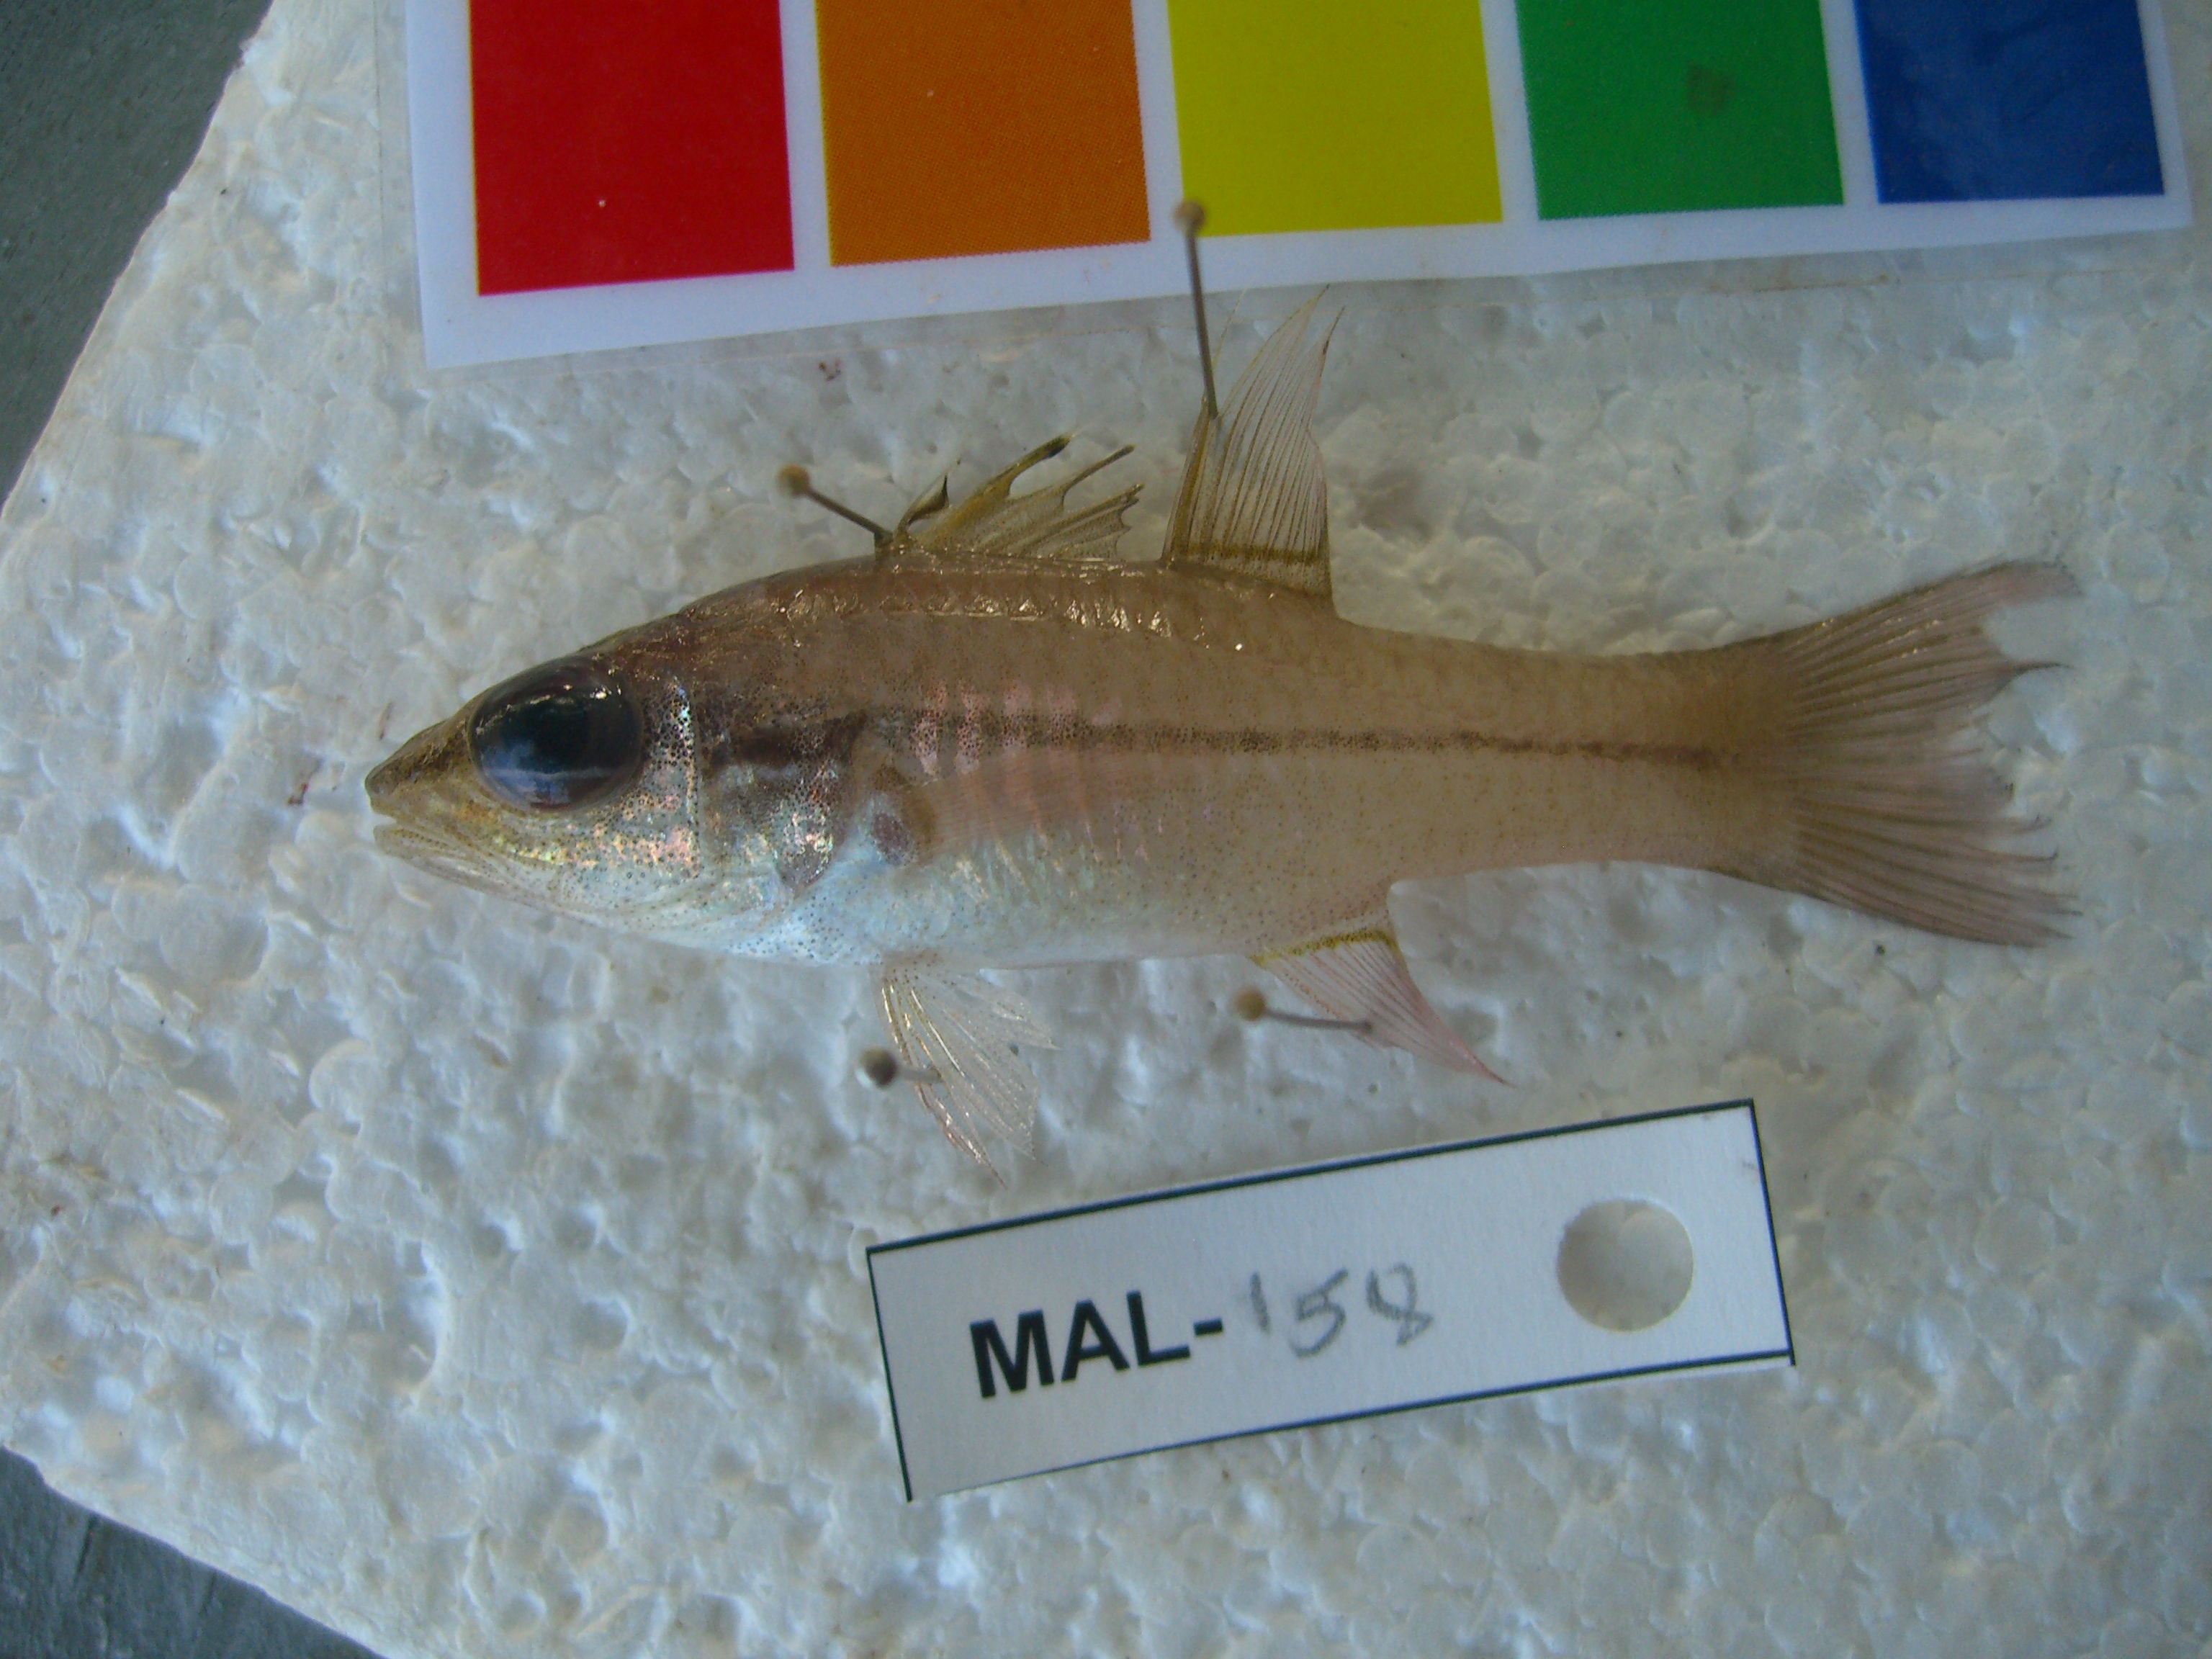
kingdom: Animalia
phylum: Chordata
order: Perciformes
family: Apogonidae
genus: Pristiapogon
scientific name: Pristiapogon abrogramma
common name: Lateralstripe cardinalfish
